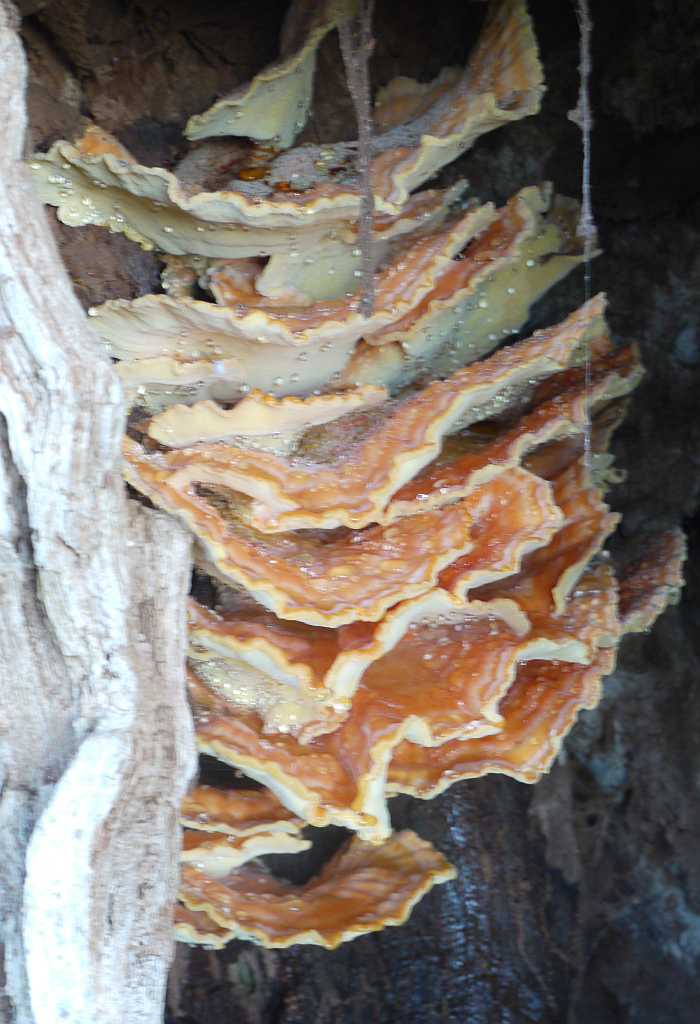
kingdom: Fungi
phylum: Basidiomycota
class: Agaricomycetes
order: Polyporales
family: Laetiporaceae
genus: Laetiporus
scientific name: Laetiporus sulphureus
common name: svovlporesvamp
